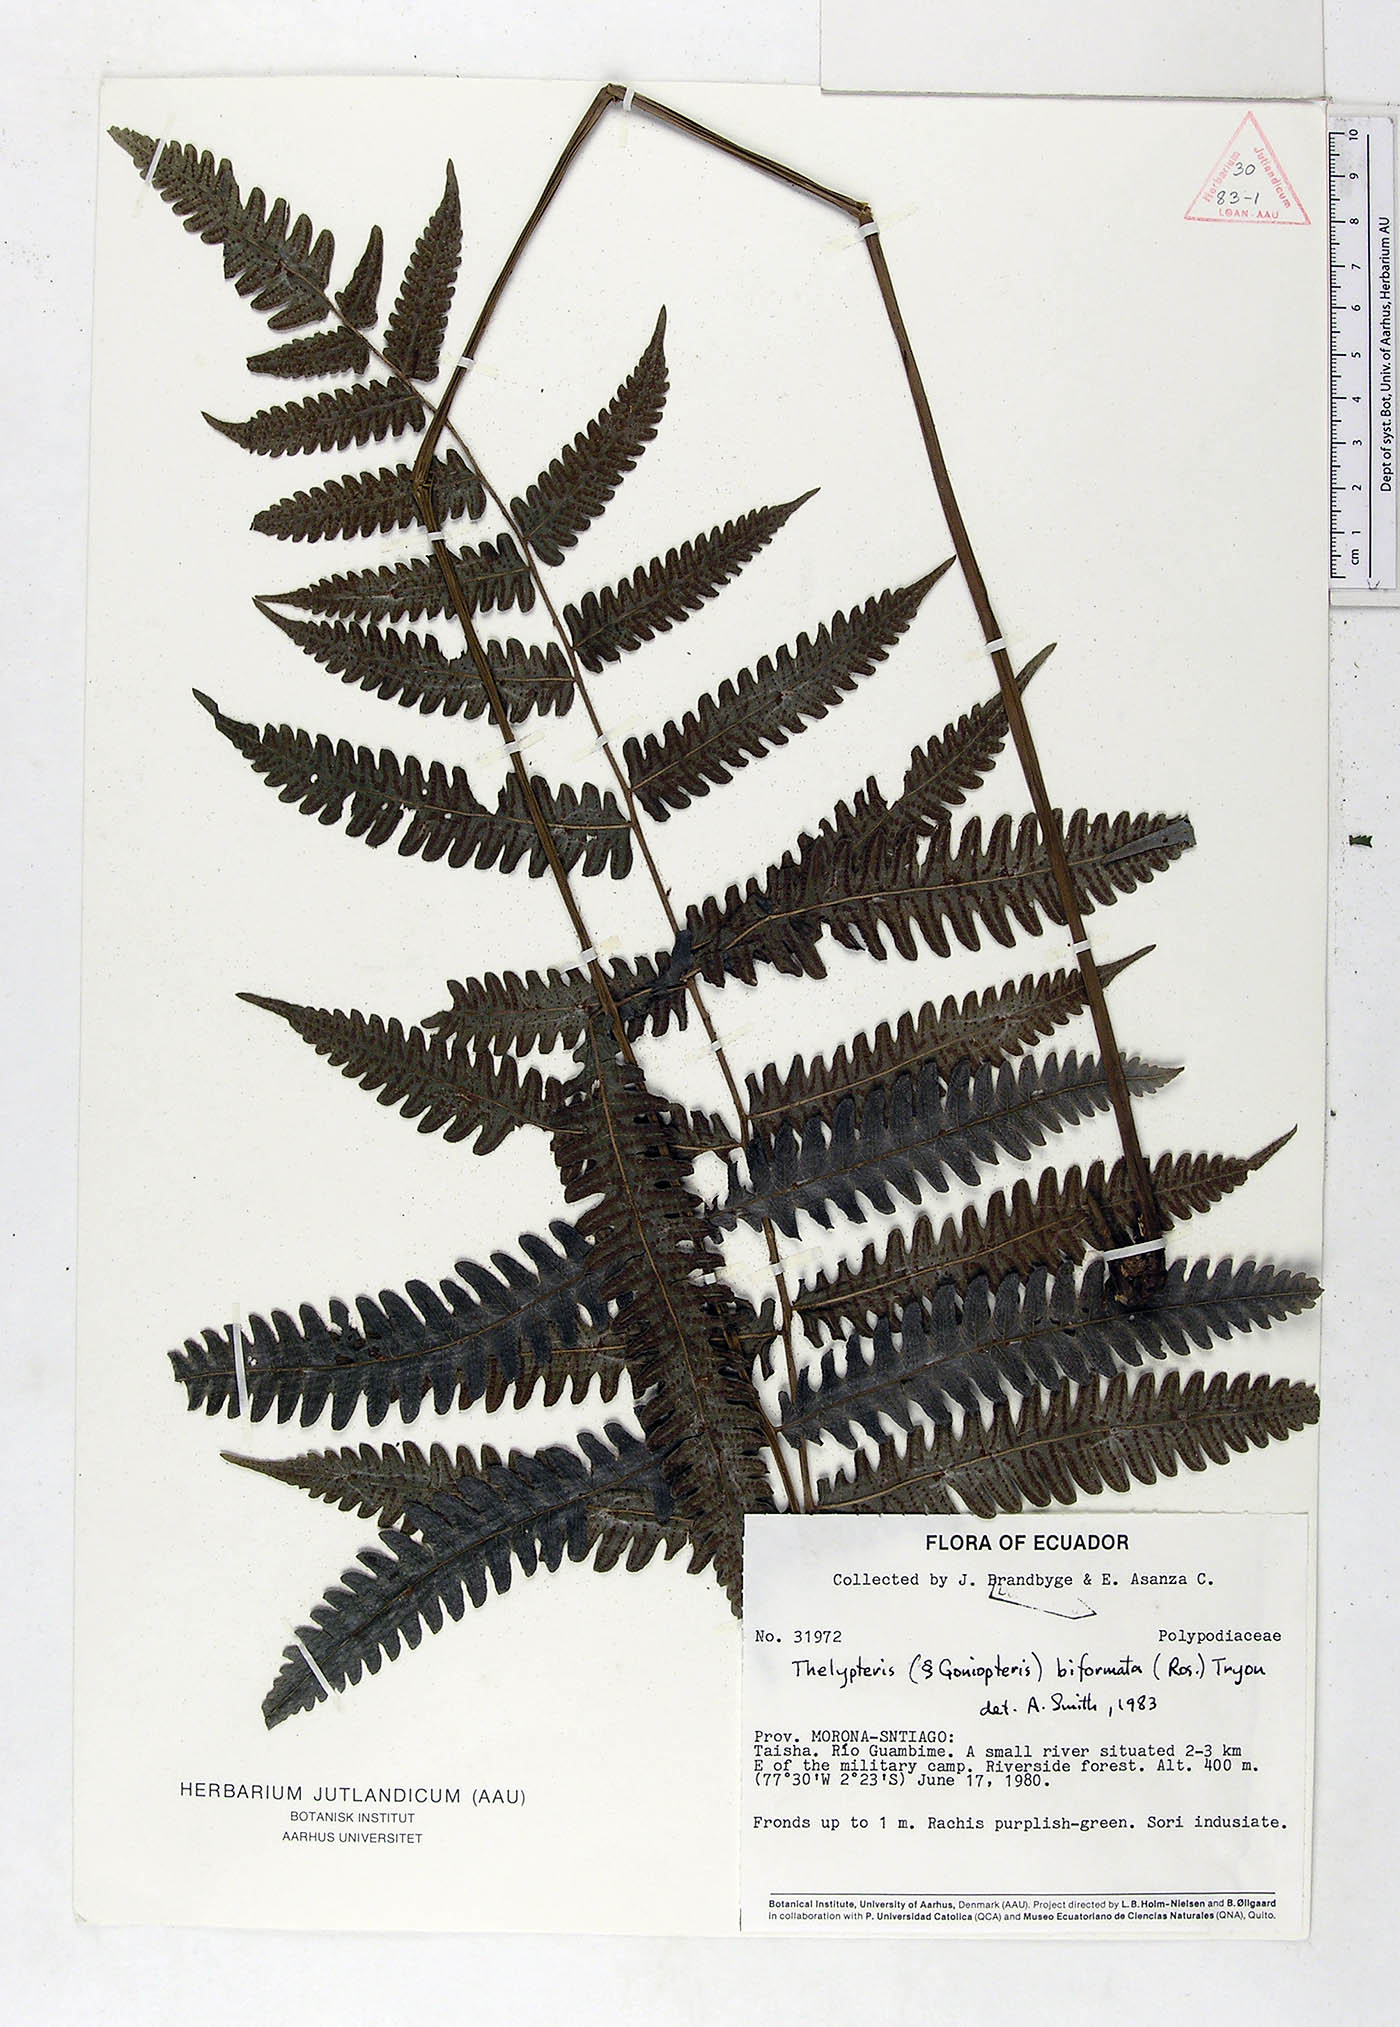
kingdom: Plantae
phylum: Tracheophyta
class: Polypodiopsida
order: Polypodiales
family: Thelypteridaceae
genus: Goniopteris
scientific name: Goniopteris biformata
